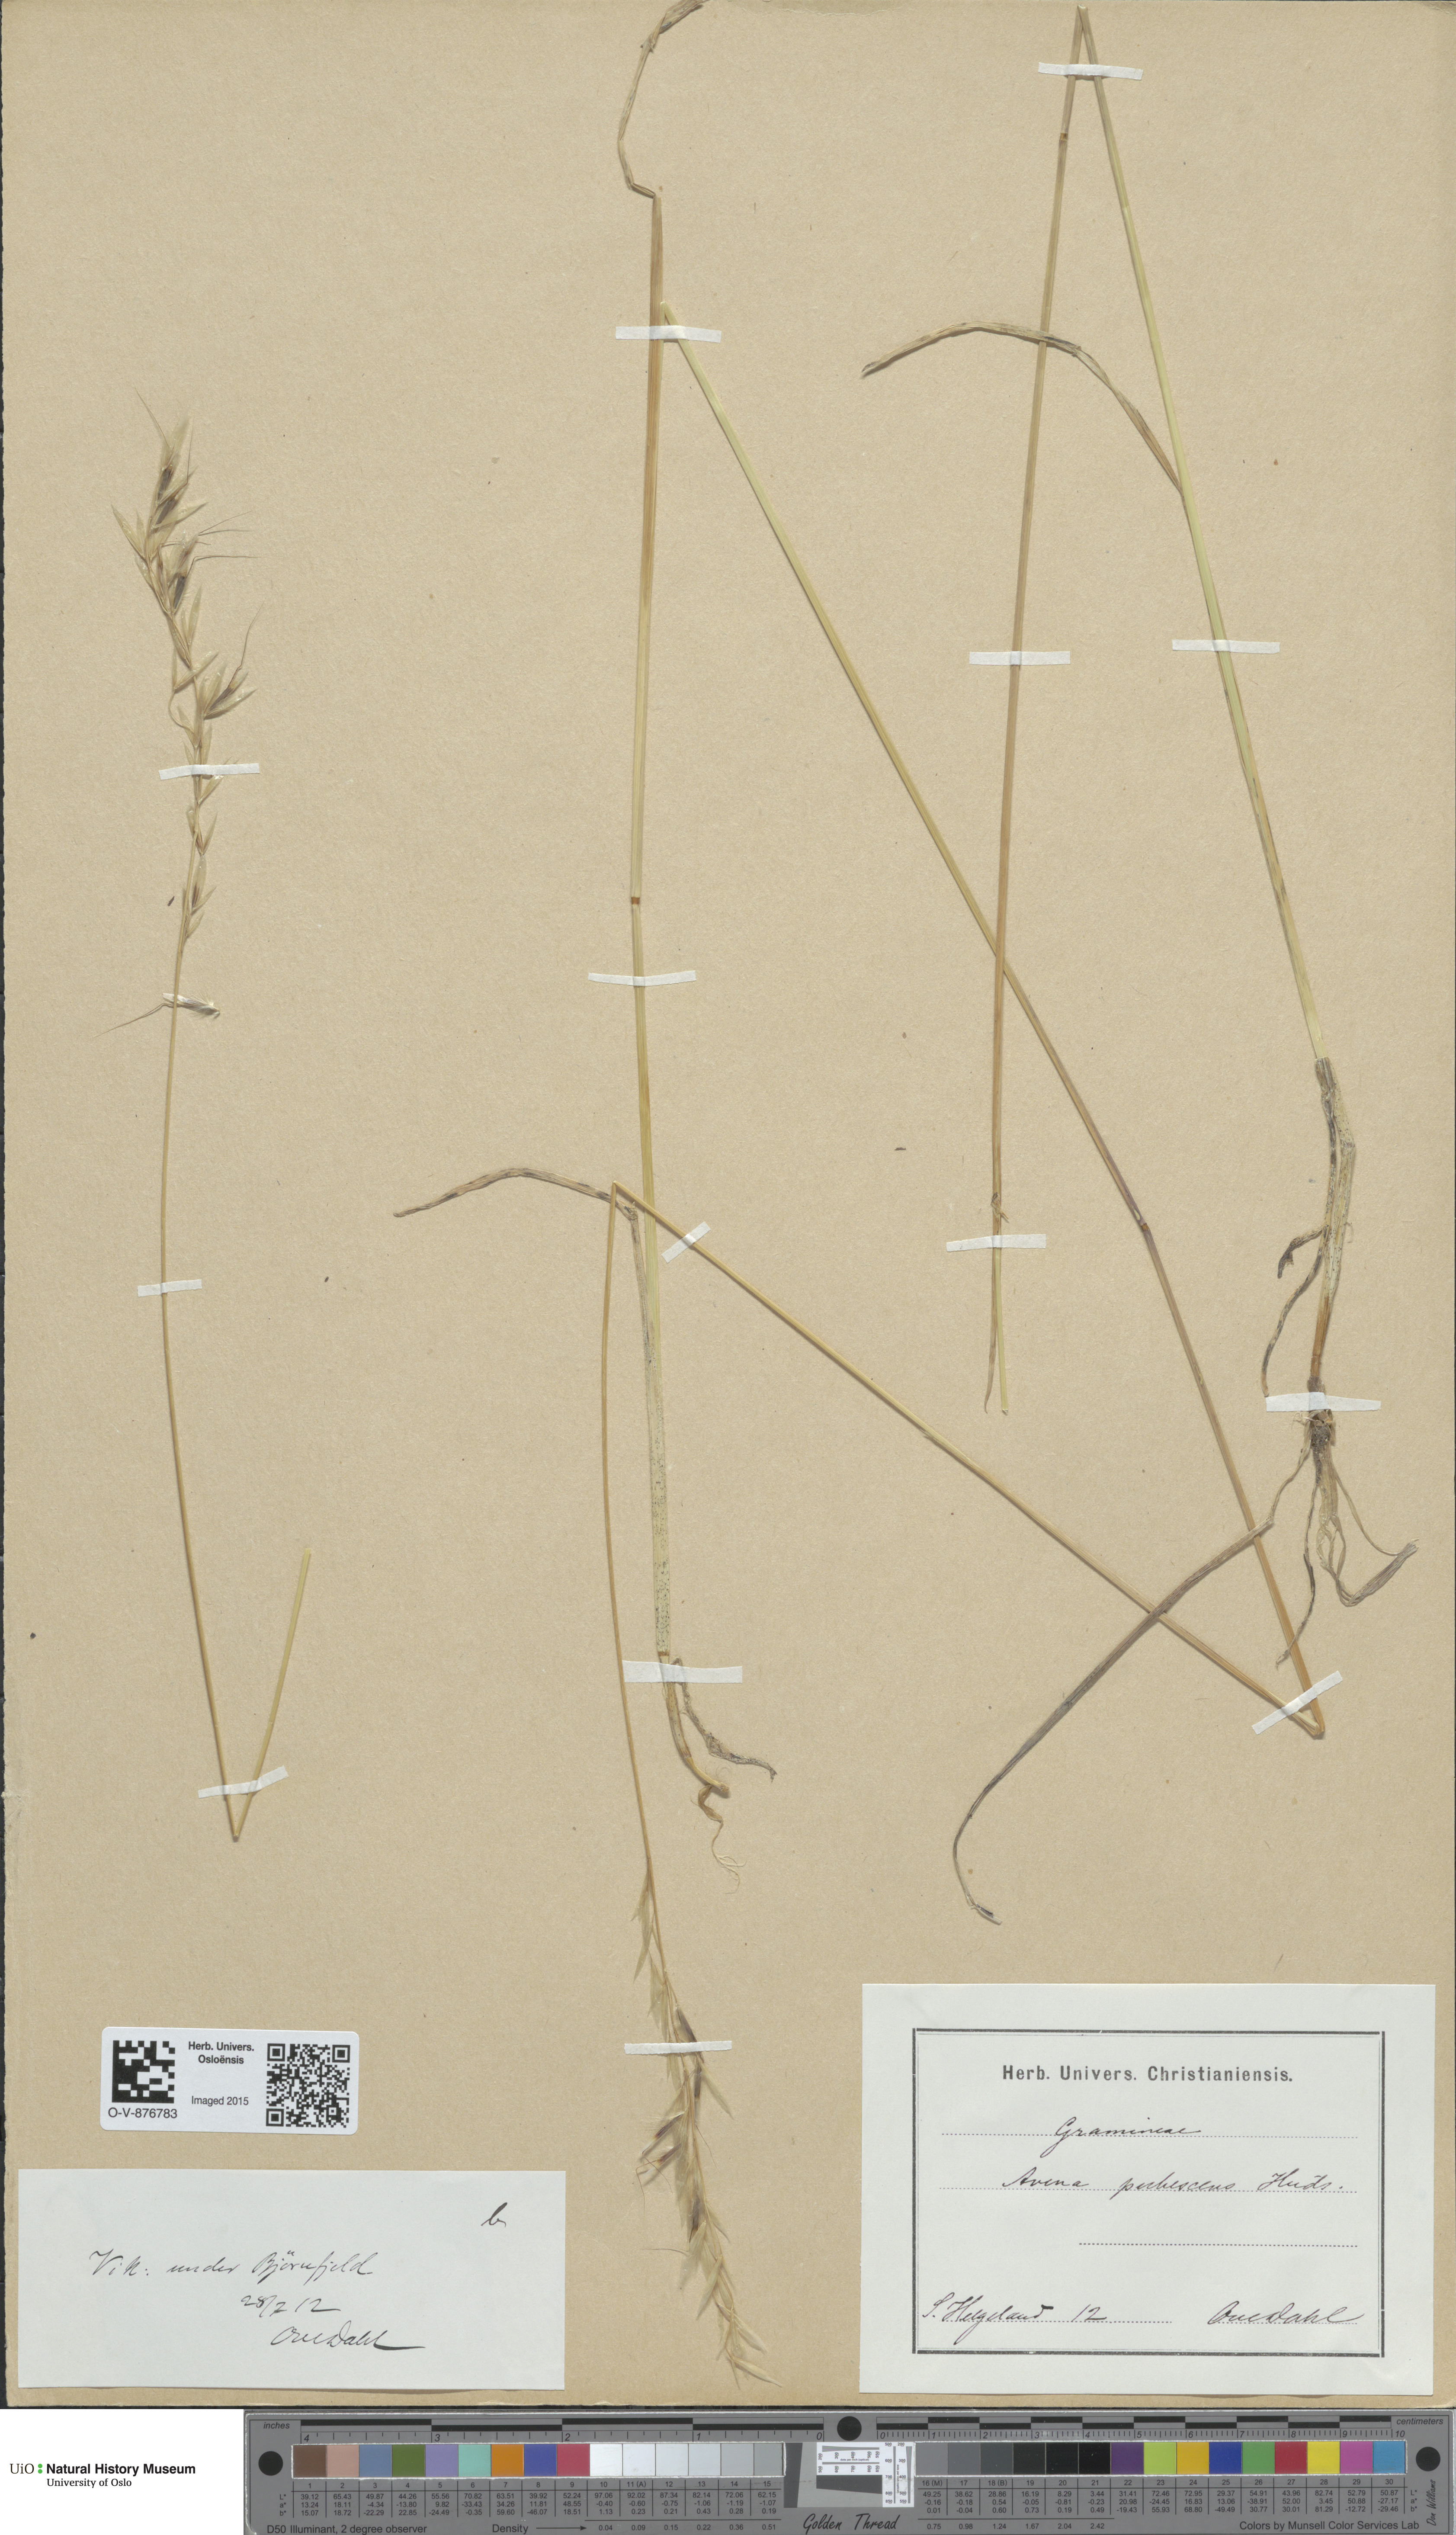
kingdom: Plantae
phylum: Tracheophyta
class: Liliopsida
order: Poales
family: Poaceae
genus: Avenula
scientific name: Avenula pubescens
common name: Downy alpine oatgrass
